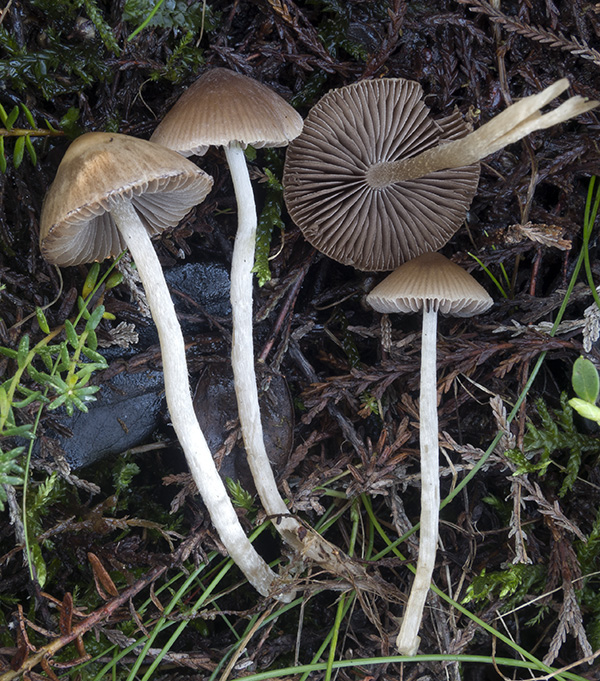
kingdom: Fungi
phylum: Basidiomycota
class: Agaricomycetes
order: Agaricales
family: Psathyrellaceae
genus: Psathyrella
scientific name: Psathyrella fibrillosa
